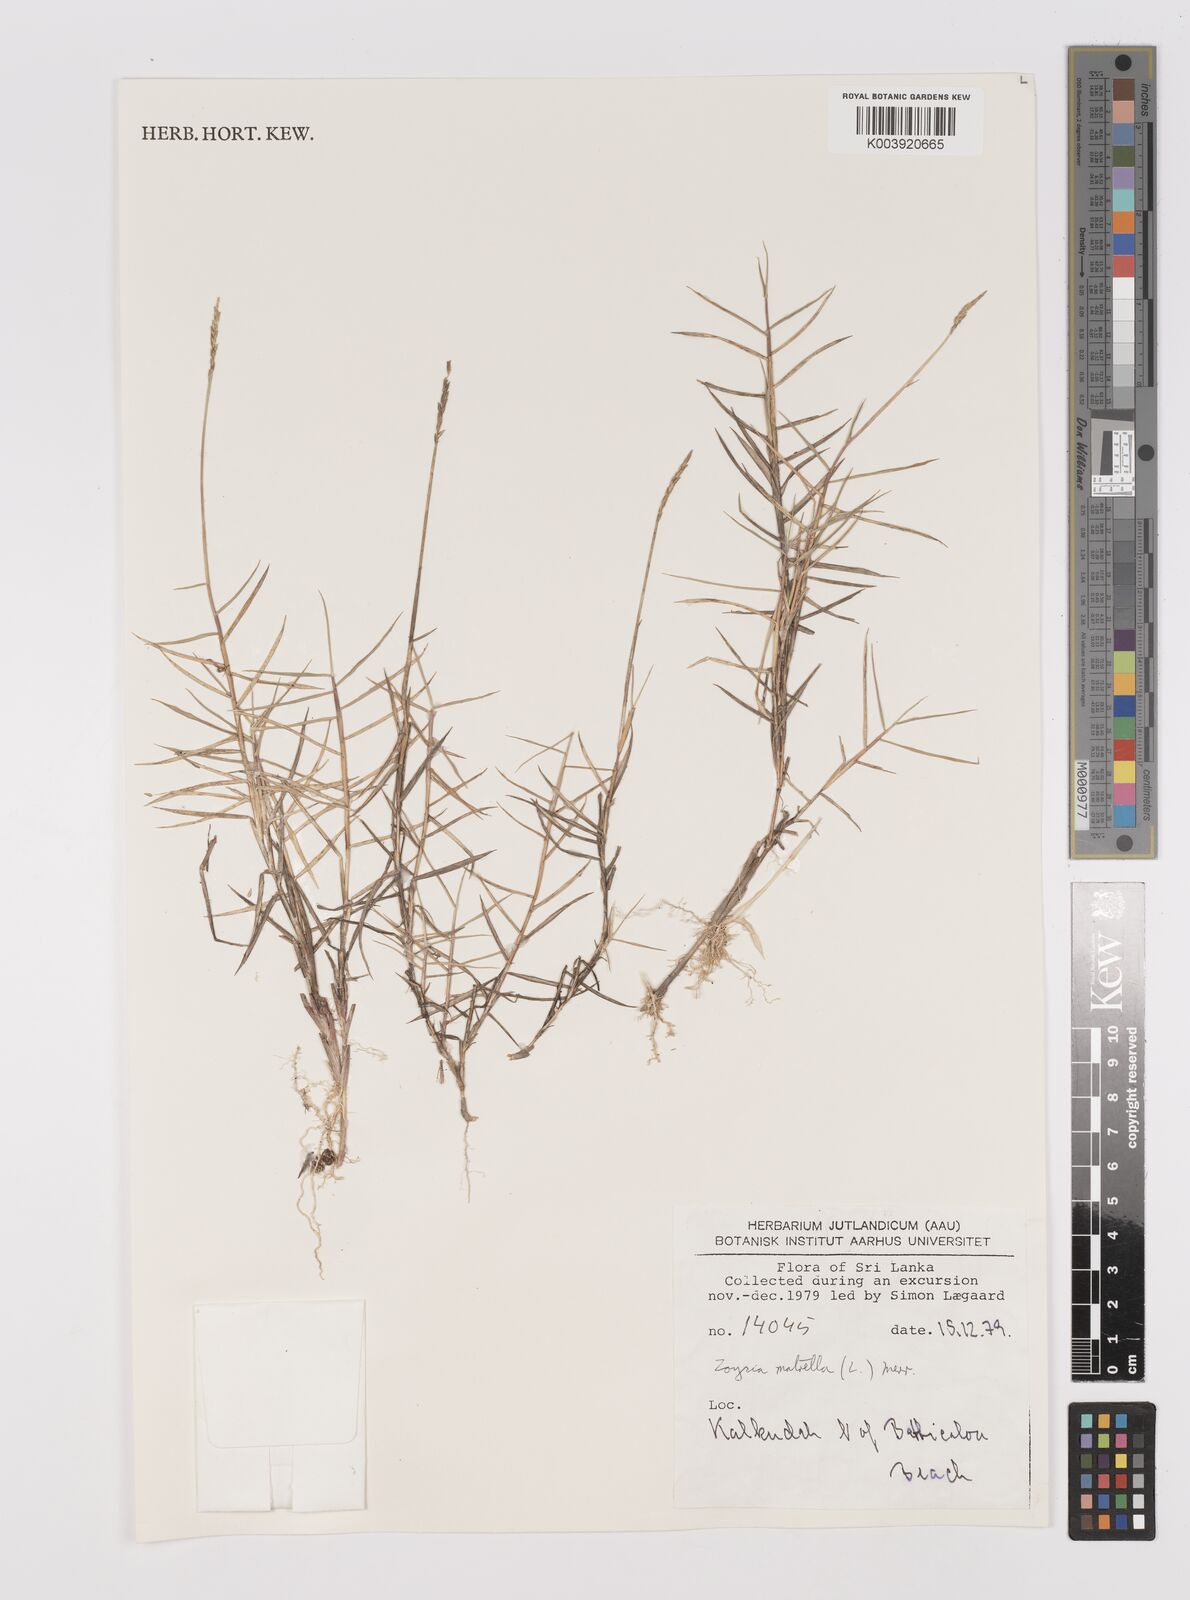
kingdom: Plantae
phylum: Tracheophyta
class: Liliopsida
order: Poales
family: Poaceae
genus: Zoysia
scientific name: Zoysia matrella
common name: Manila grass
